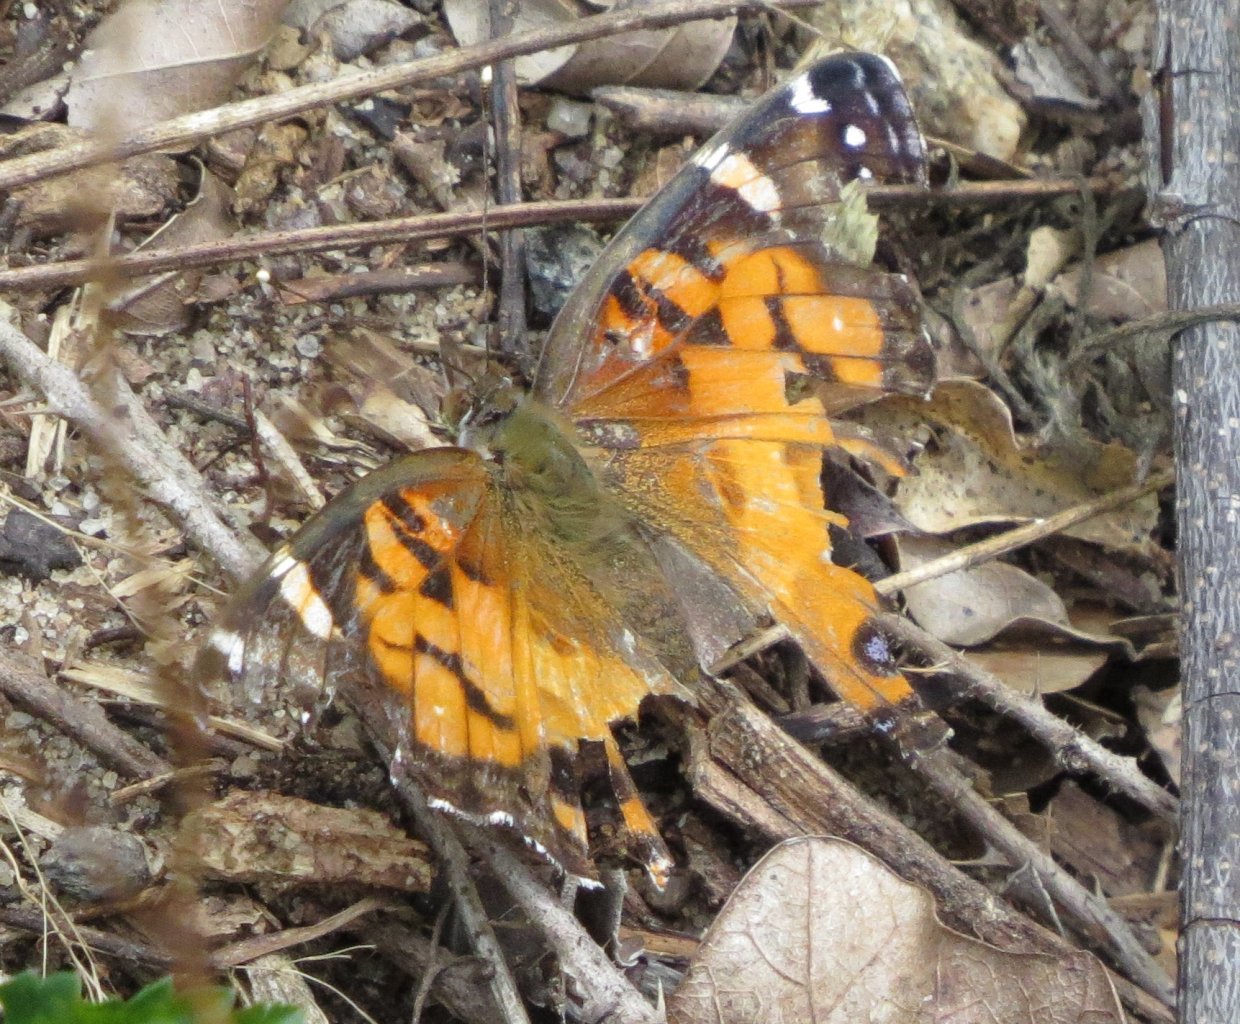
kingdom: Animalia
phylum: Arthropoda
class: Insecta
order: Lepidoptera
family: Nymphalidae
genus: Vanessa
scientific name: Vanessa virginiensis
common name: American Lady
